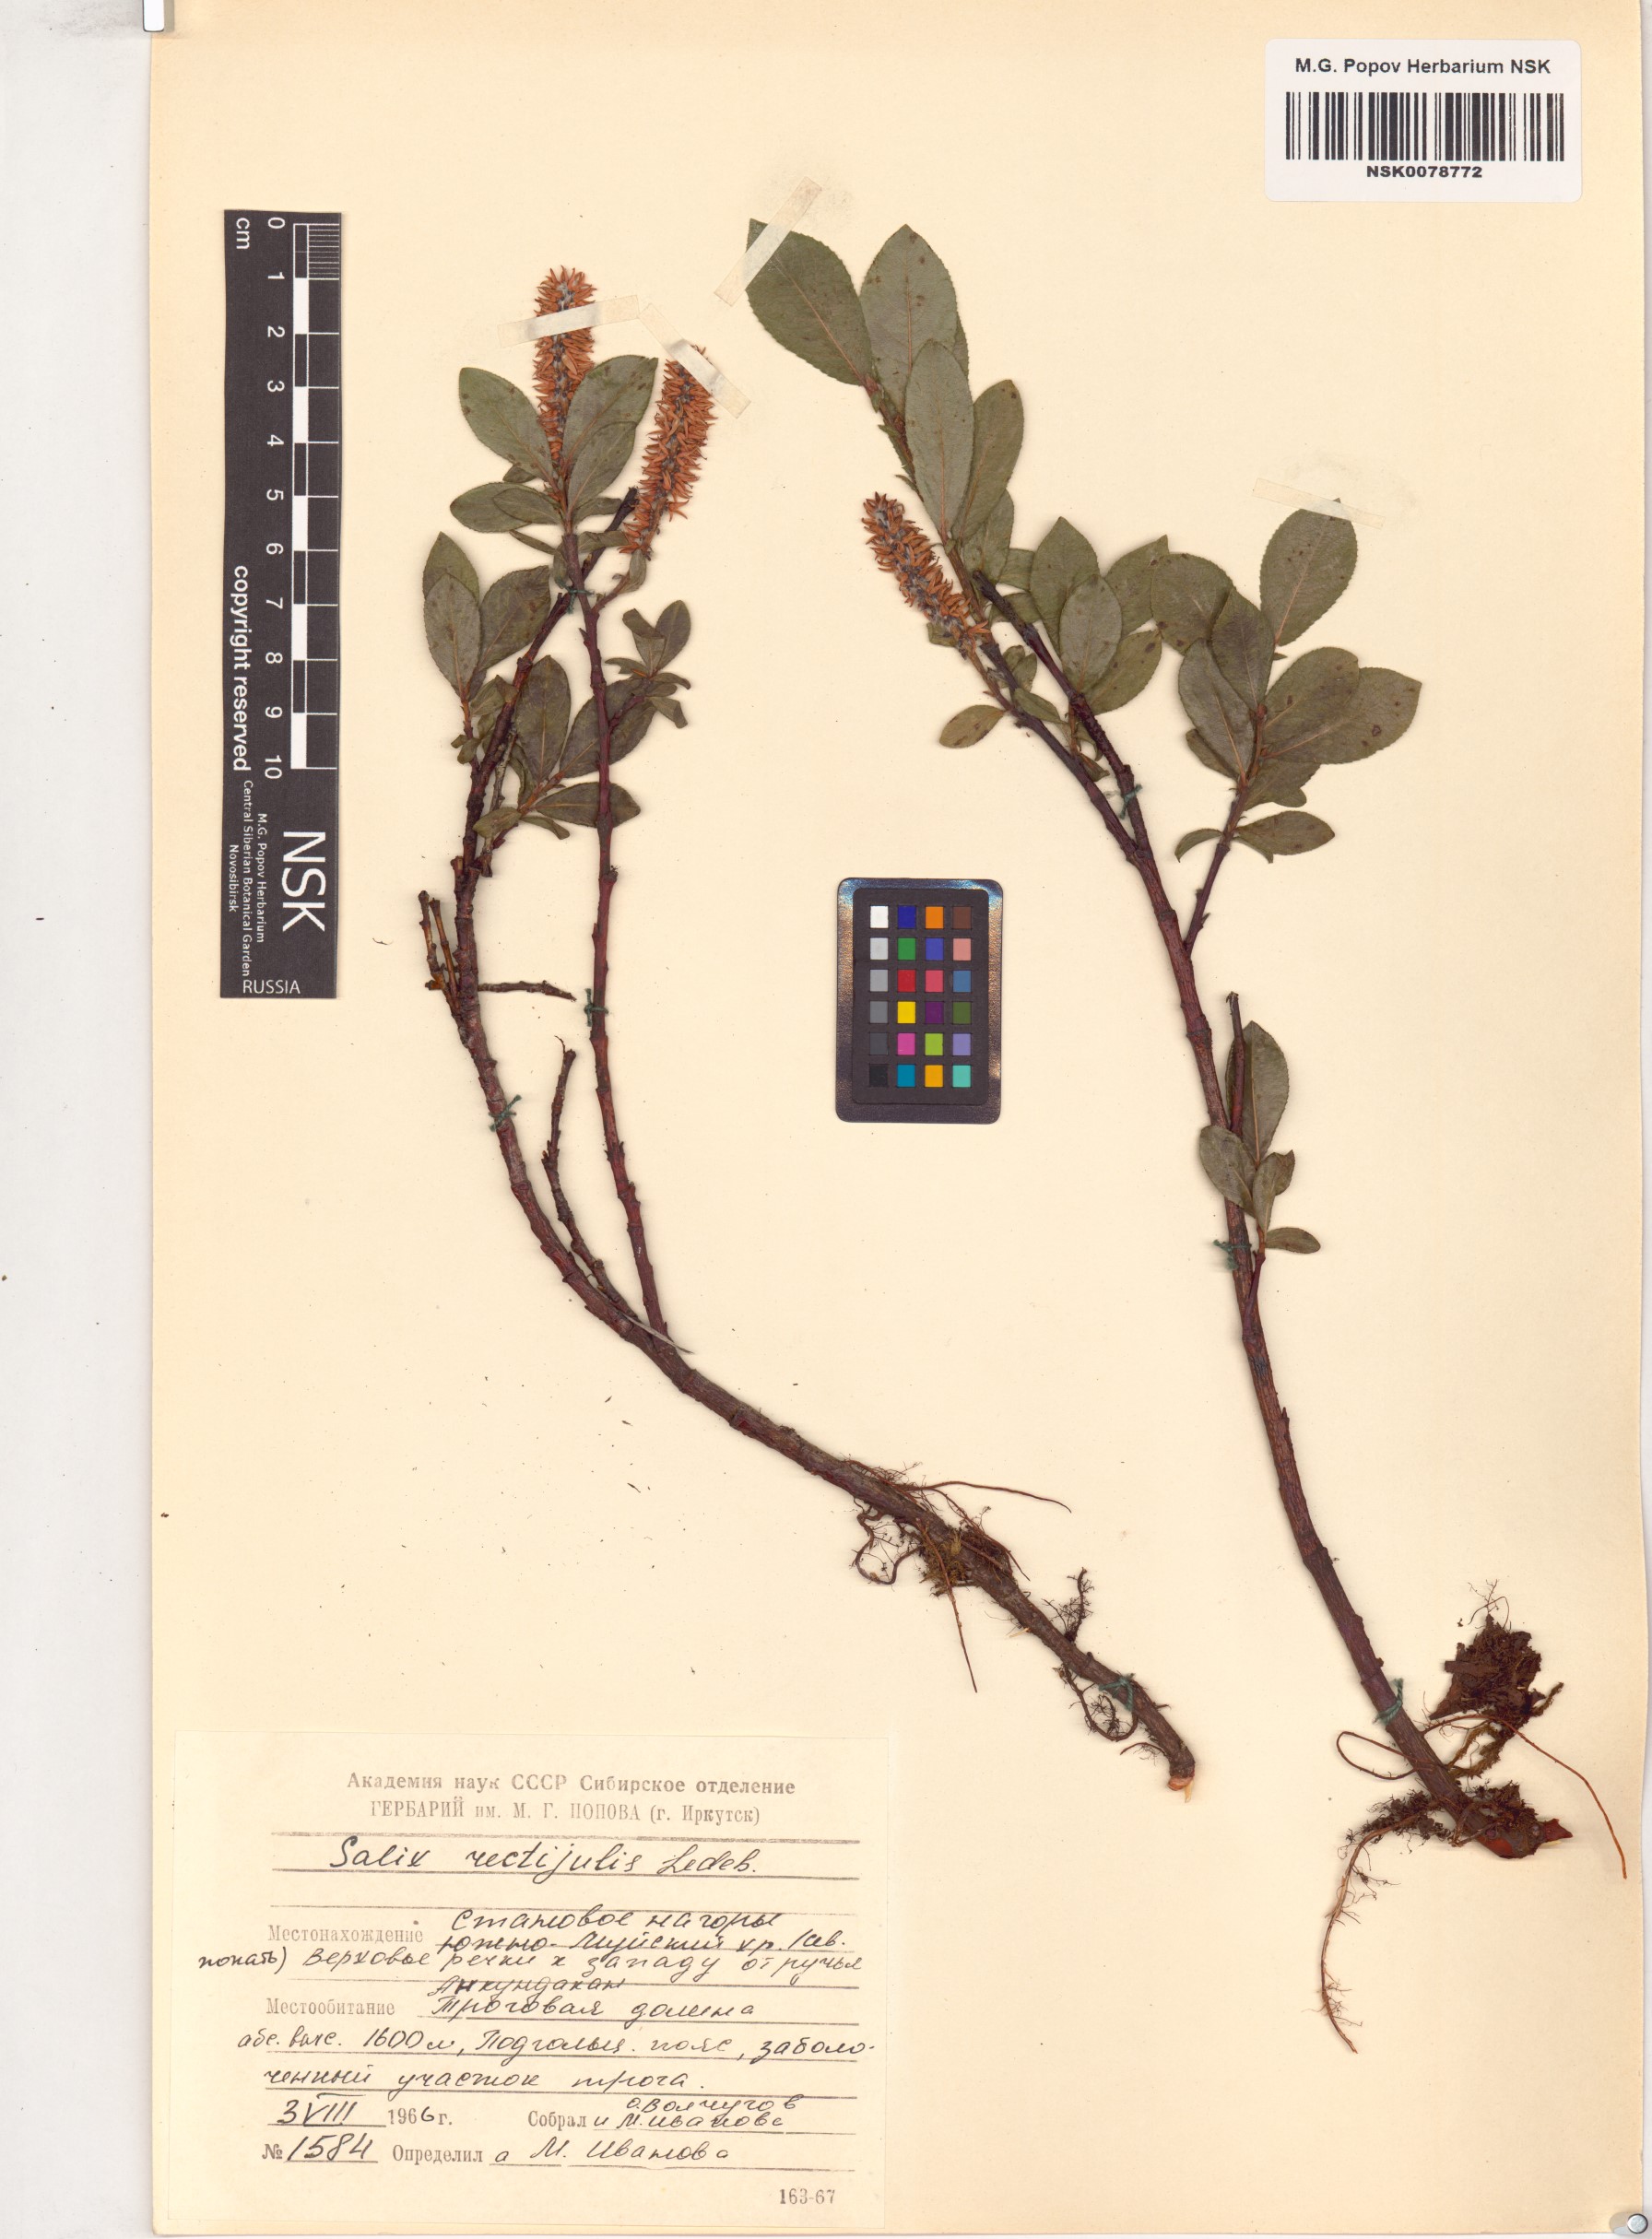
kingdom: Plantae
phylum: Tracheophyta
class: Magnoliopsida
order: Malpighiales
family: Salicaceae
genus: Salix
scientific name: Salix rectijulis
